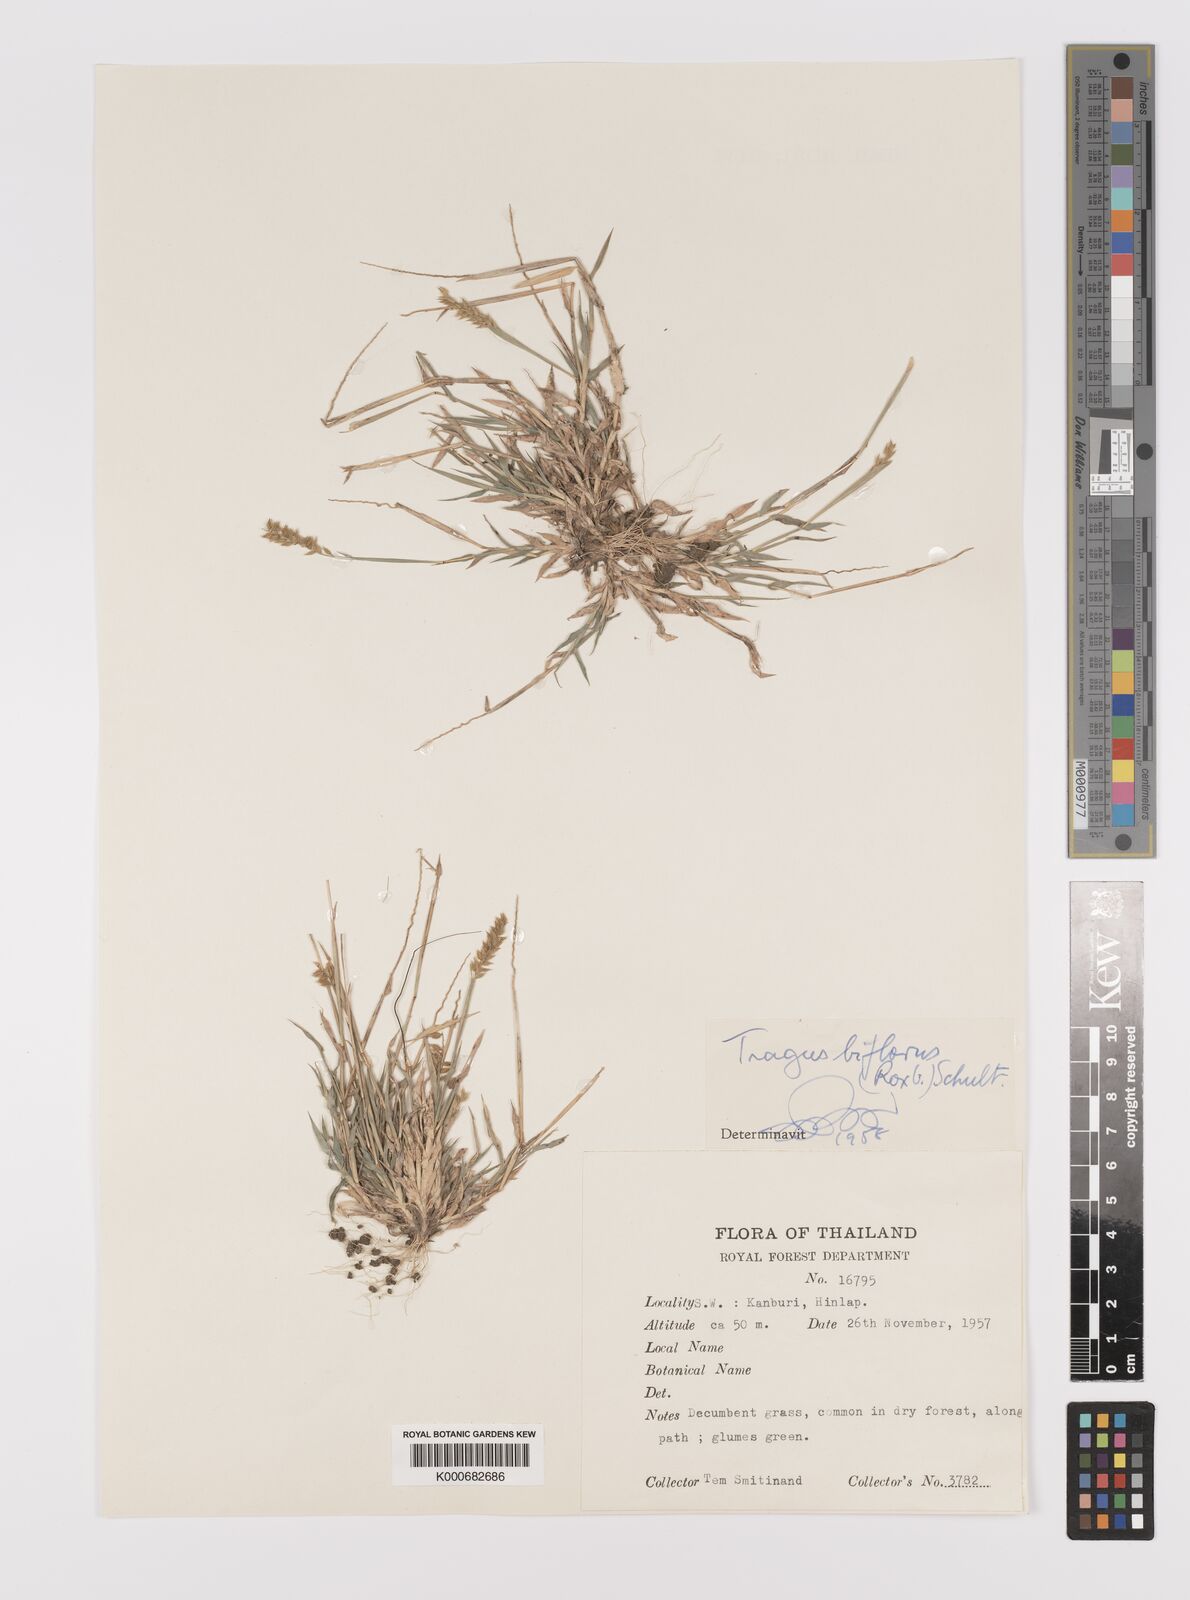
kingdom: Plantae
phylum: Tracheophyta
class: Liliopsida
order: Poales
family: Poaceae
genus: Tragus
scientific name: Tragus mongolorum
